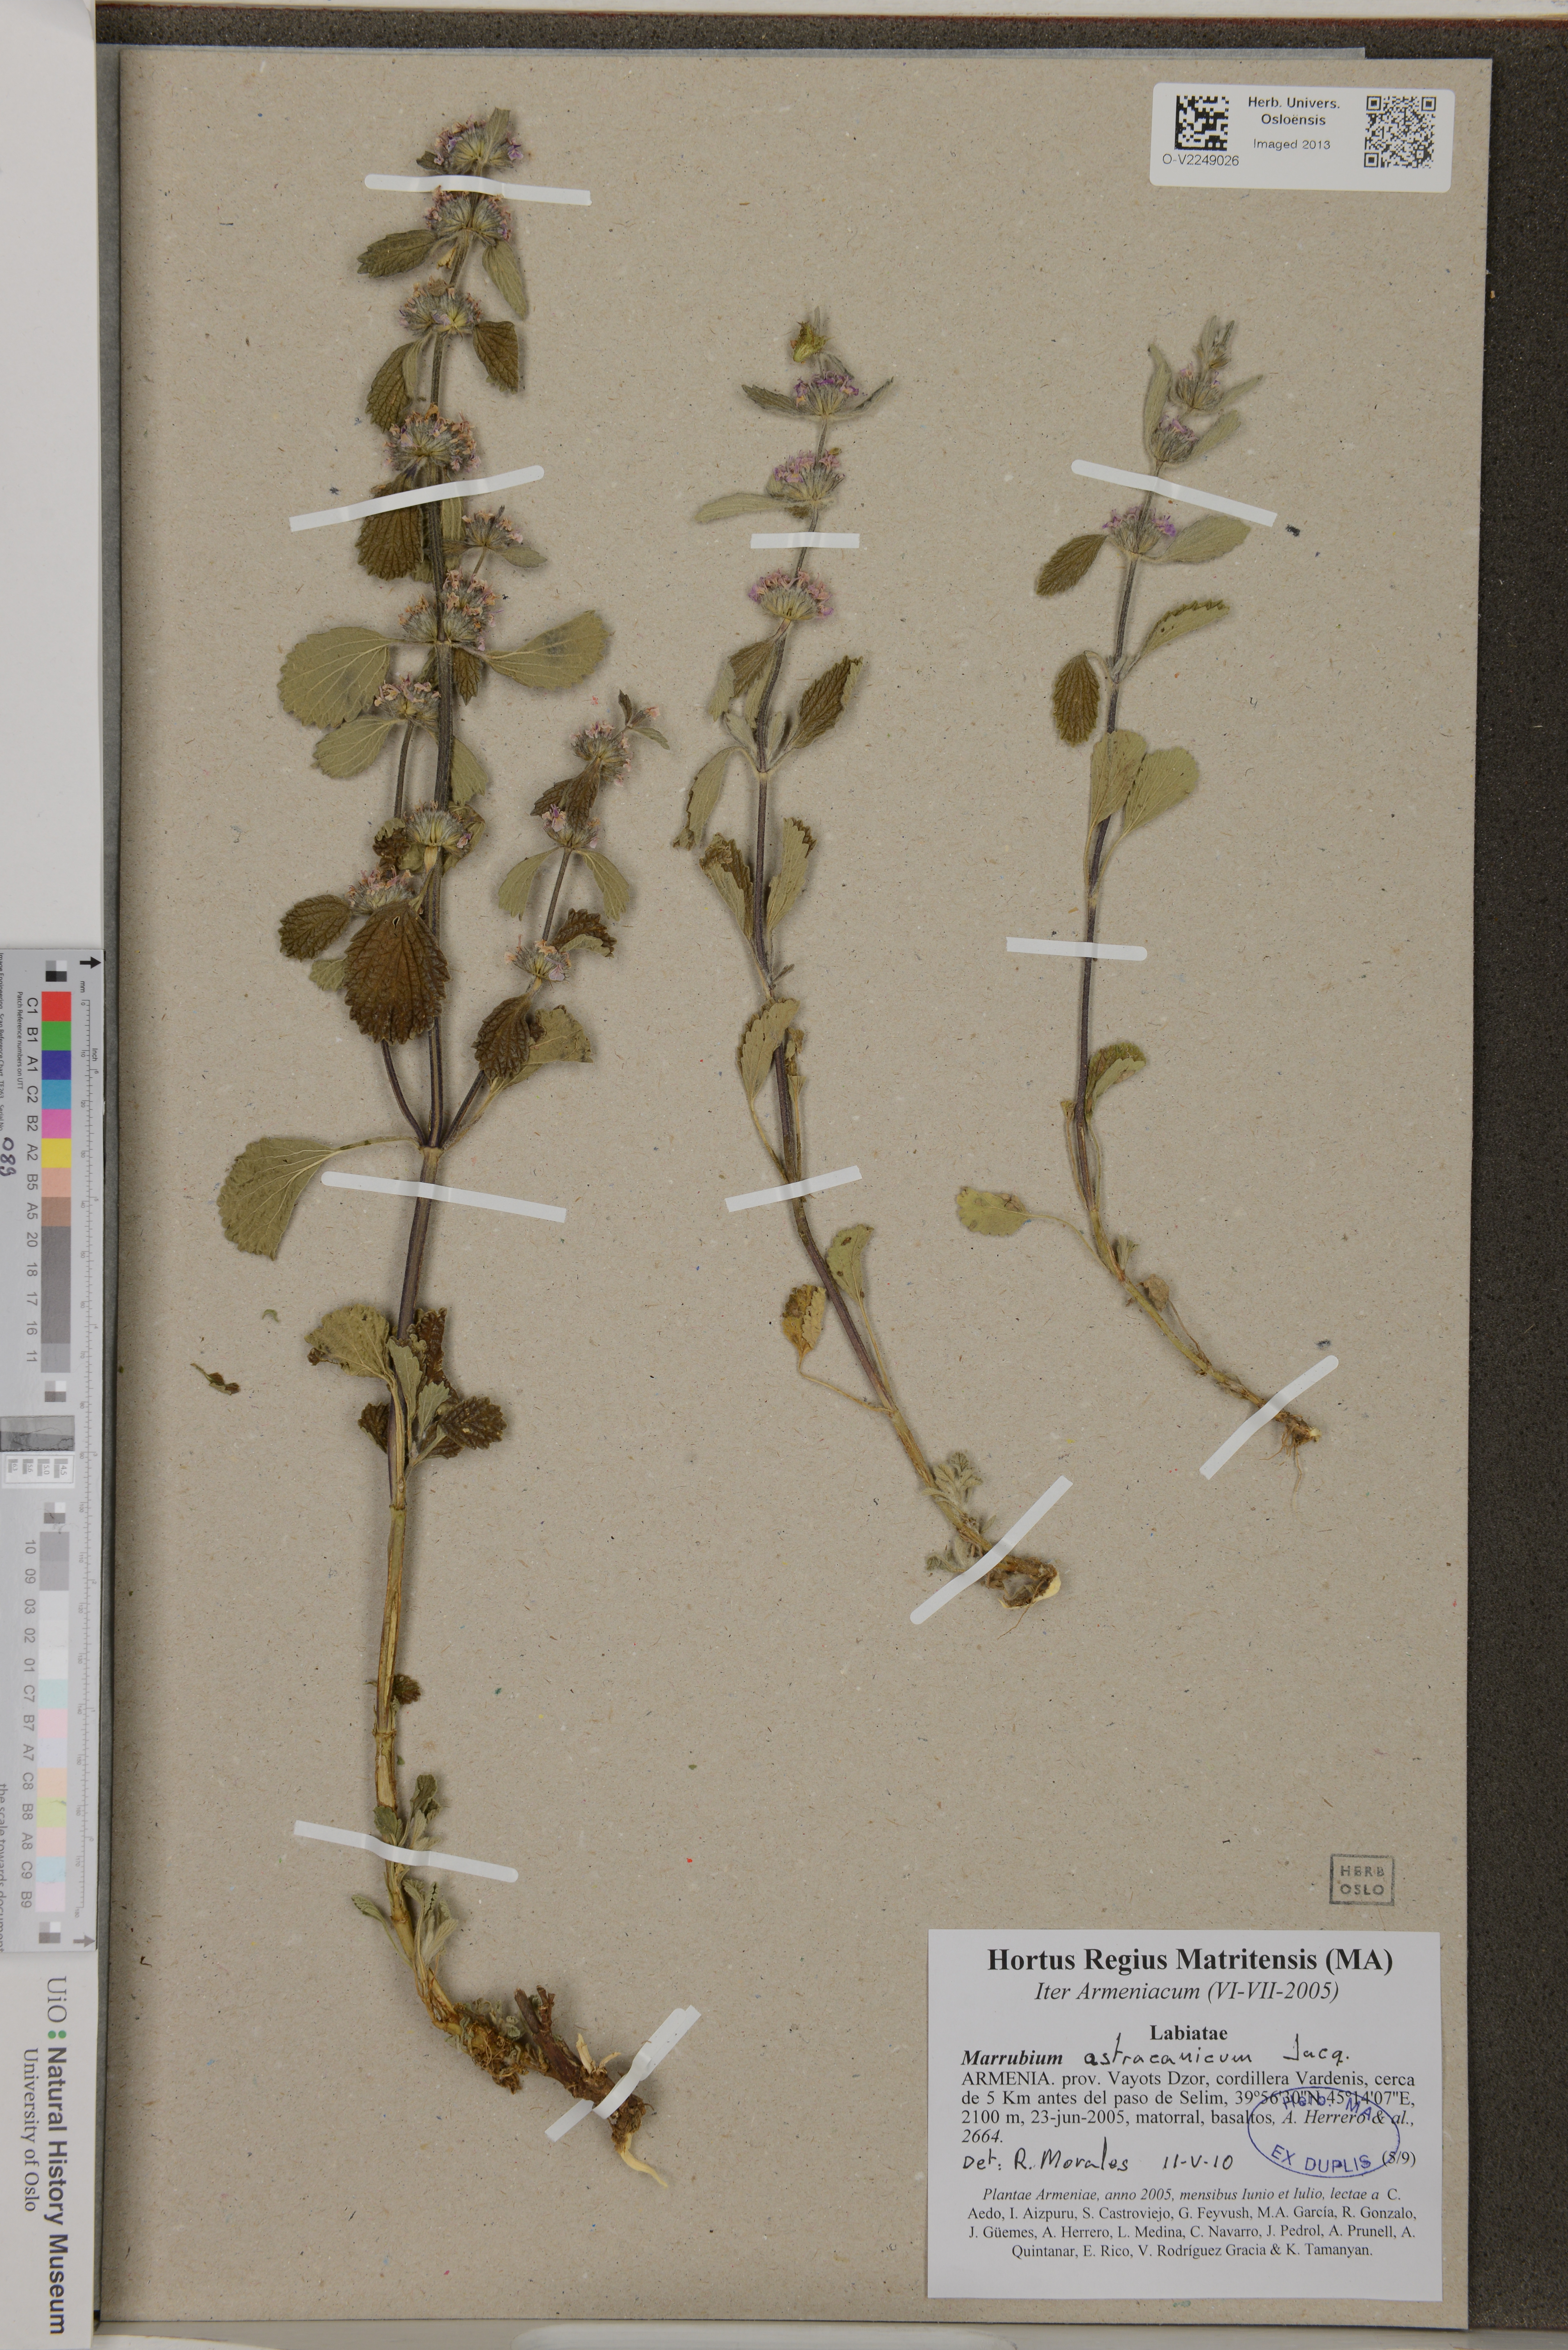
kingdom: Plantae
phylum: Tracheophyta
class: Magnoliopsida
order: Lamiales
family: Lamiaceae
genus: Marrubium
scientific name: Marrubium astracanicum
